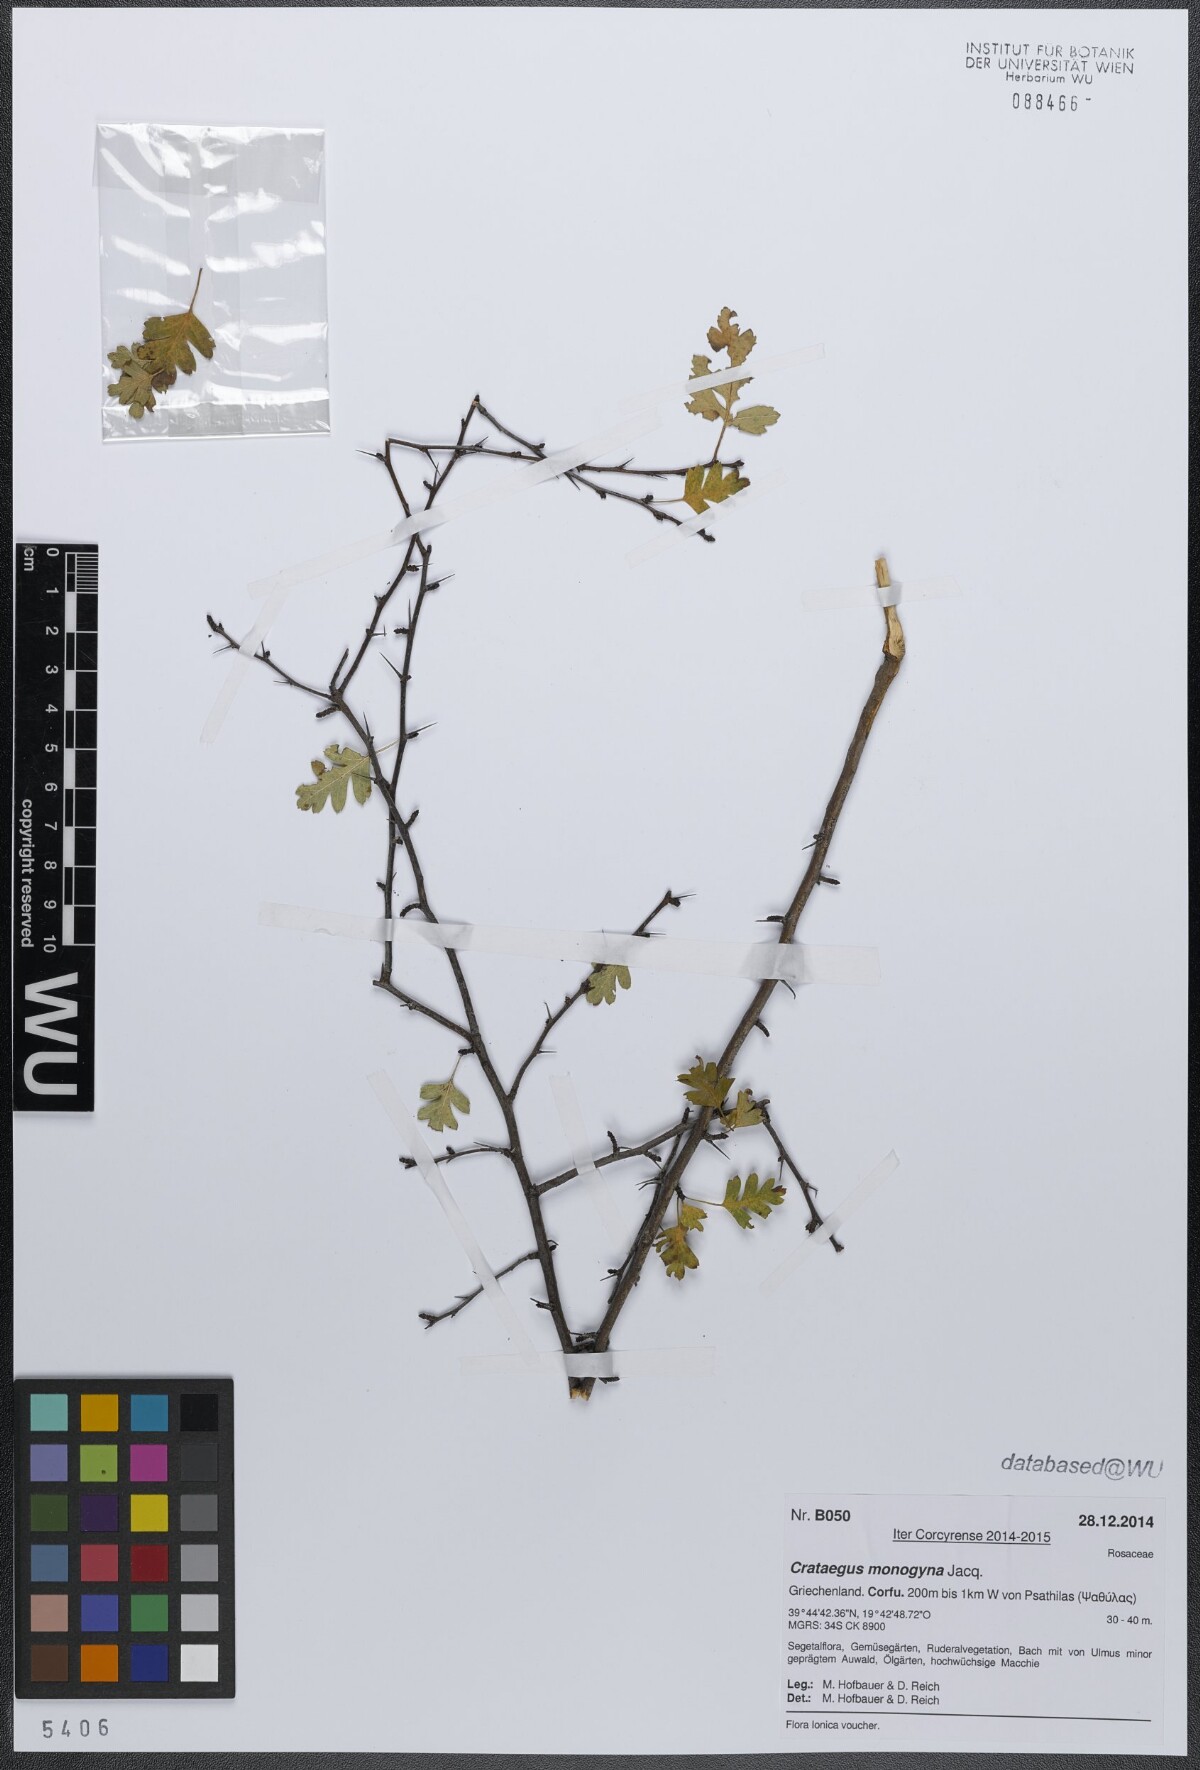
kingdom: Plantae
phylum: Tracheophyta
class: Magnoliopsida
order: Rosales
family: Rosaceae
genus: Crataegus
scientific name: Crataegus monogyna
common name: Hawthorn
